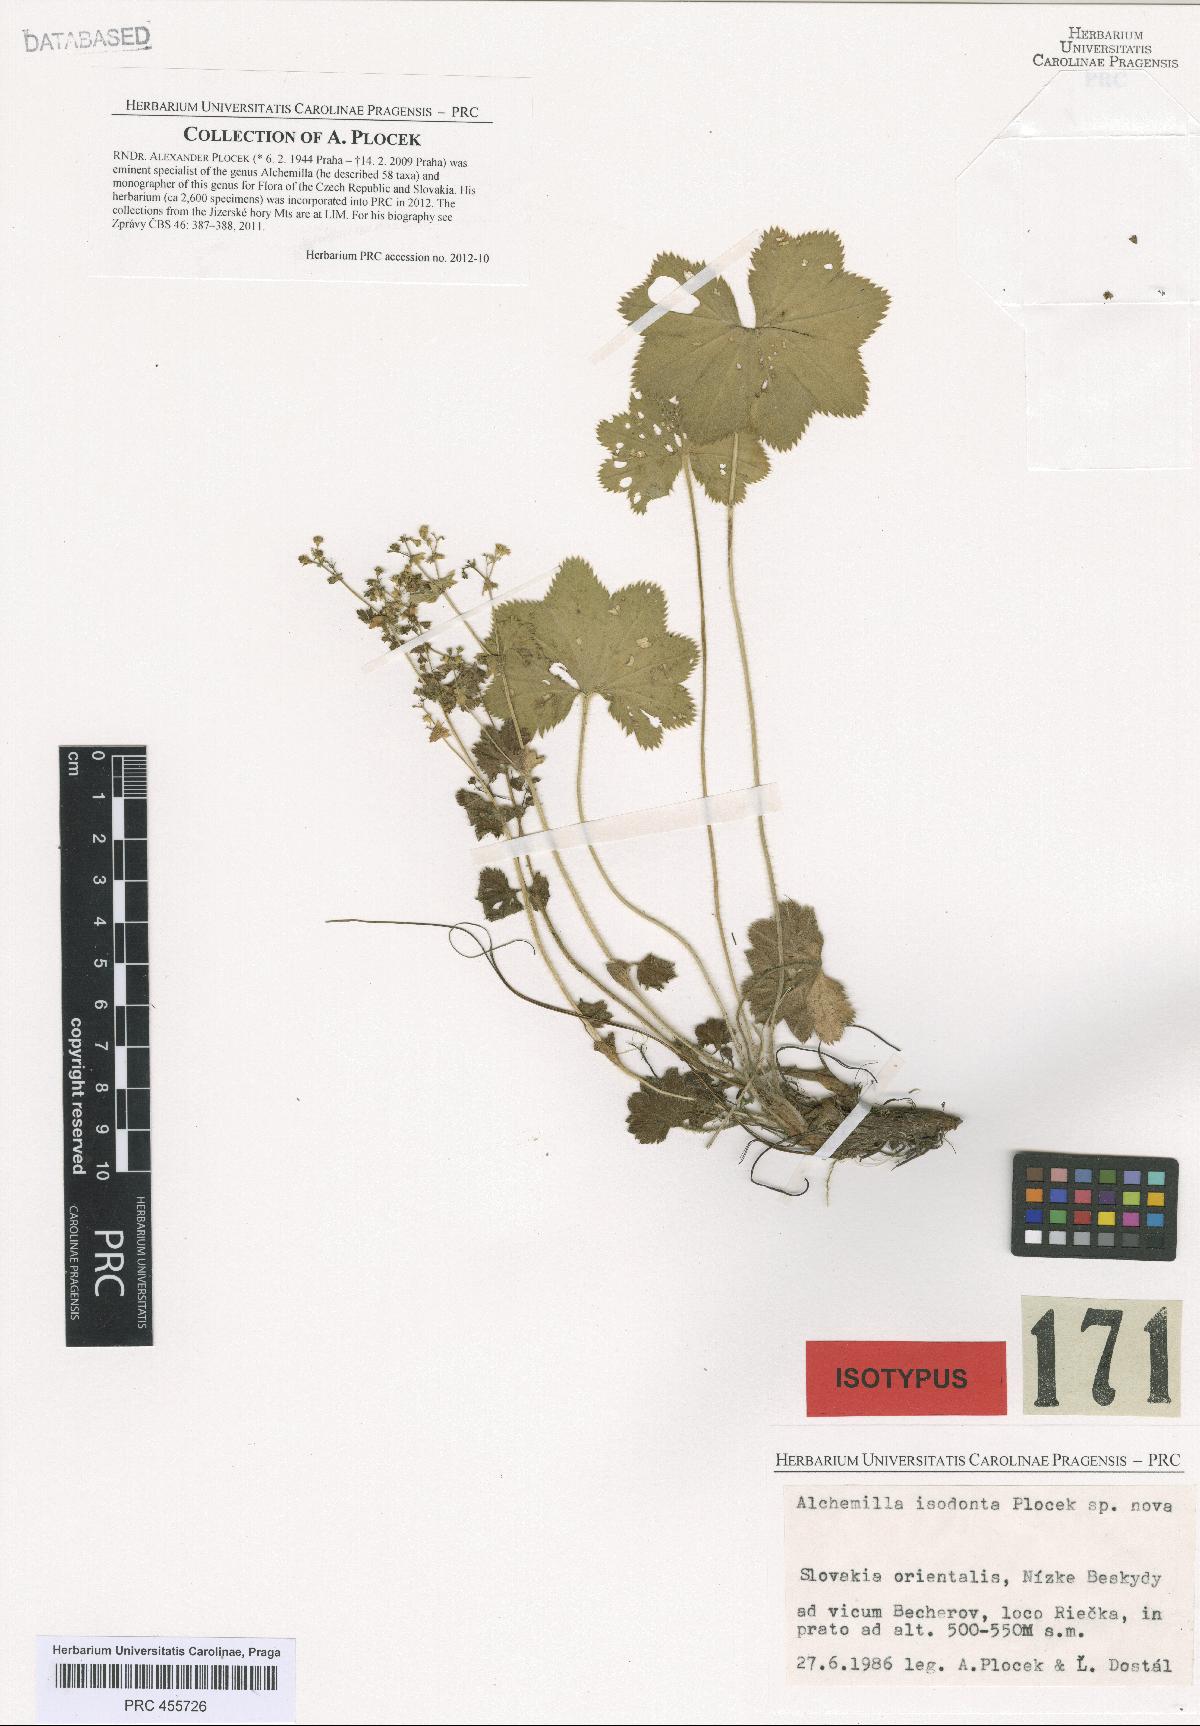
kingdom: Plantae
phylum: Tracheophyta
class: Magnoliopsida
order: Rosales
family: Rosaceae
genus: Alchemilla
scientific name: Alchemilla isodonta
